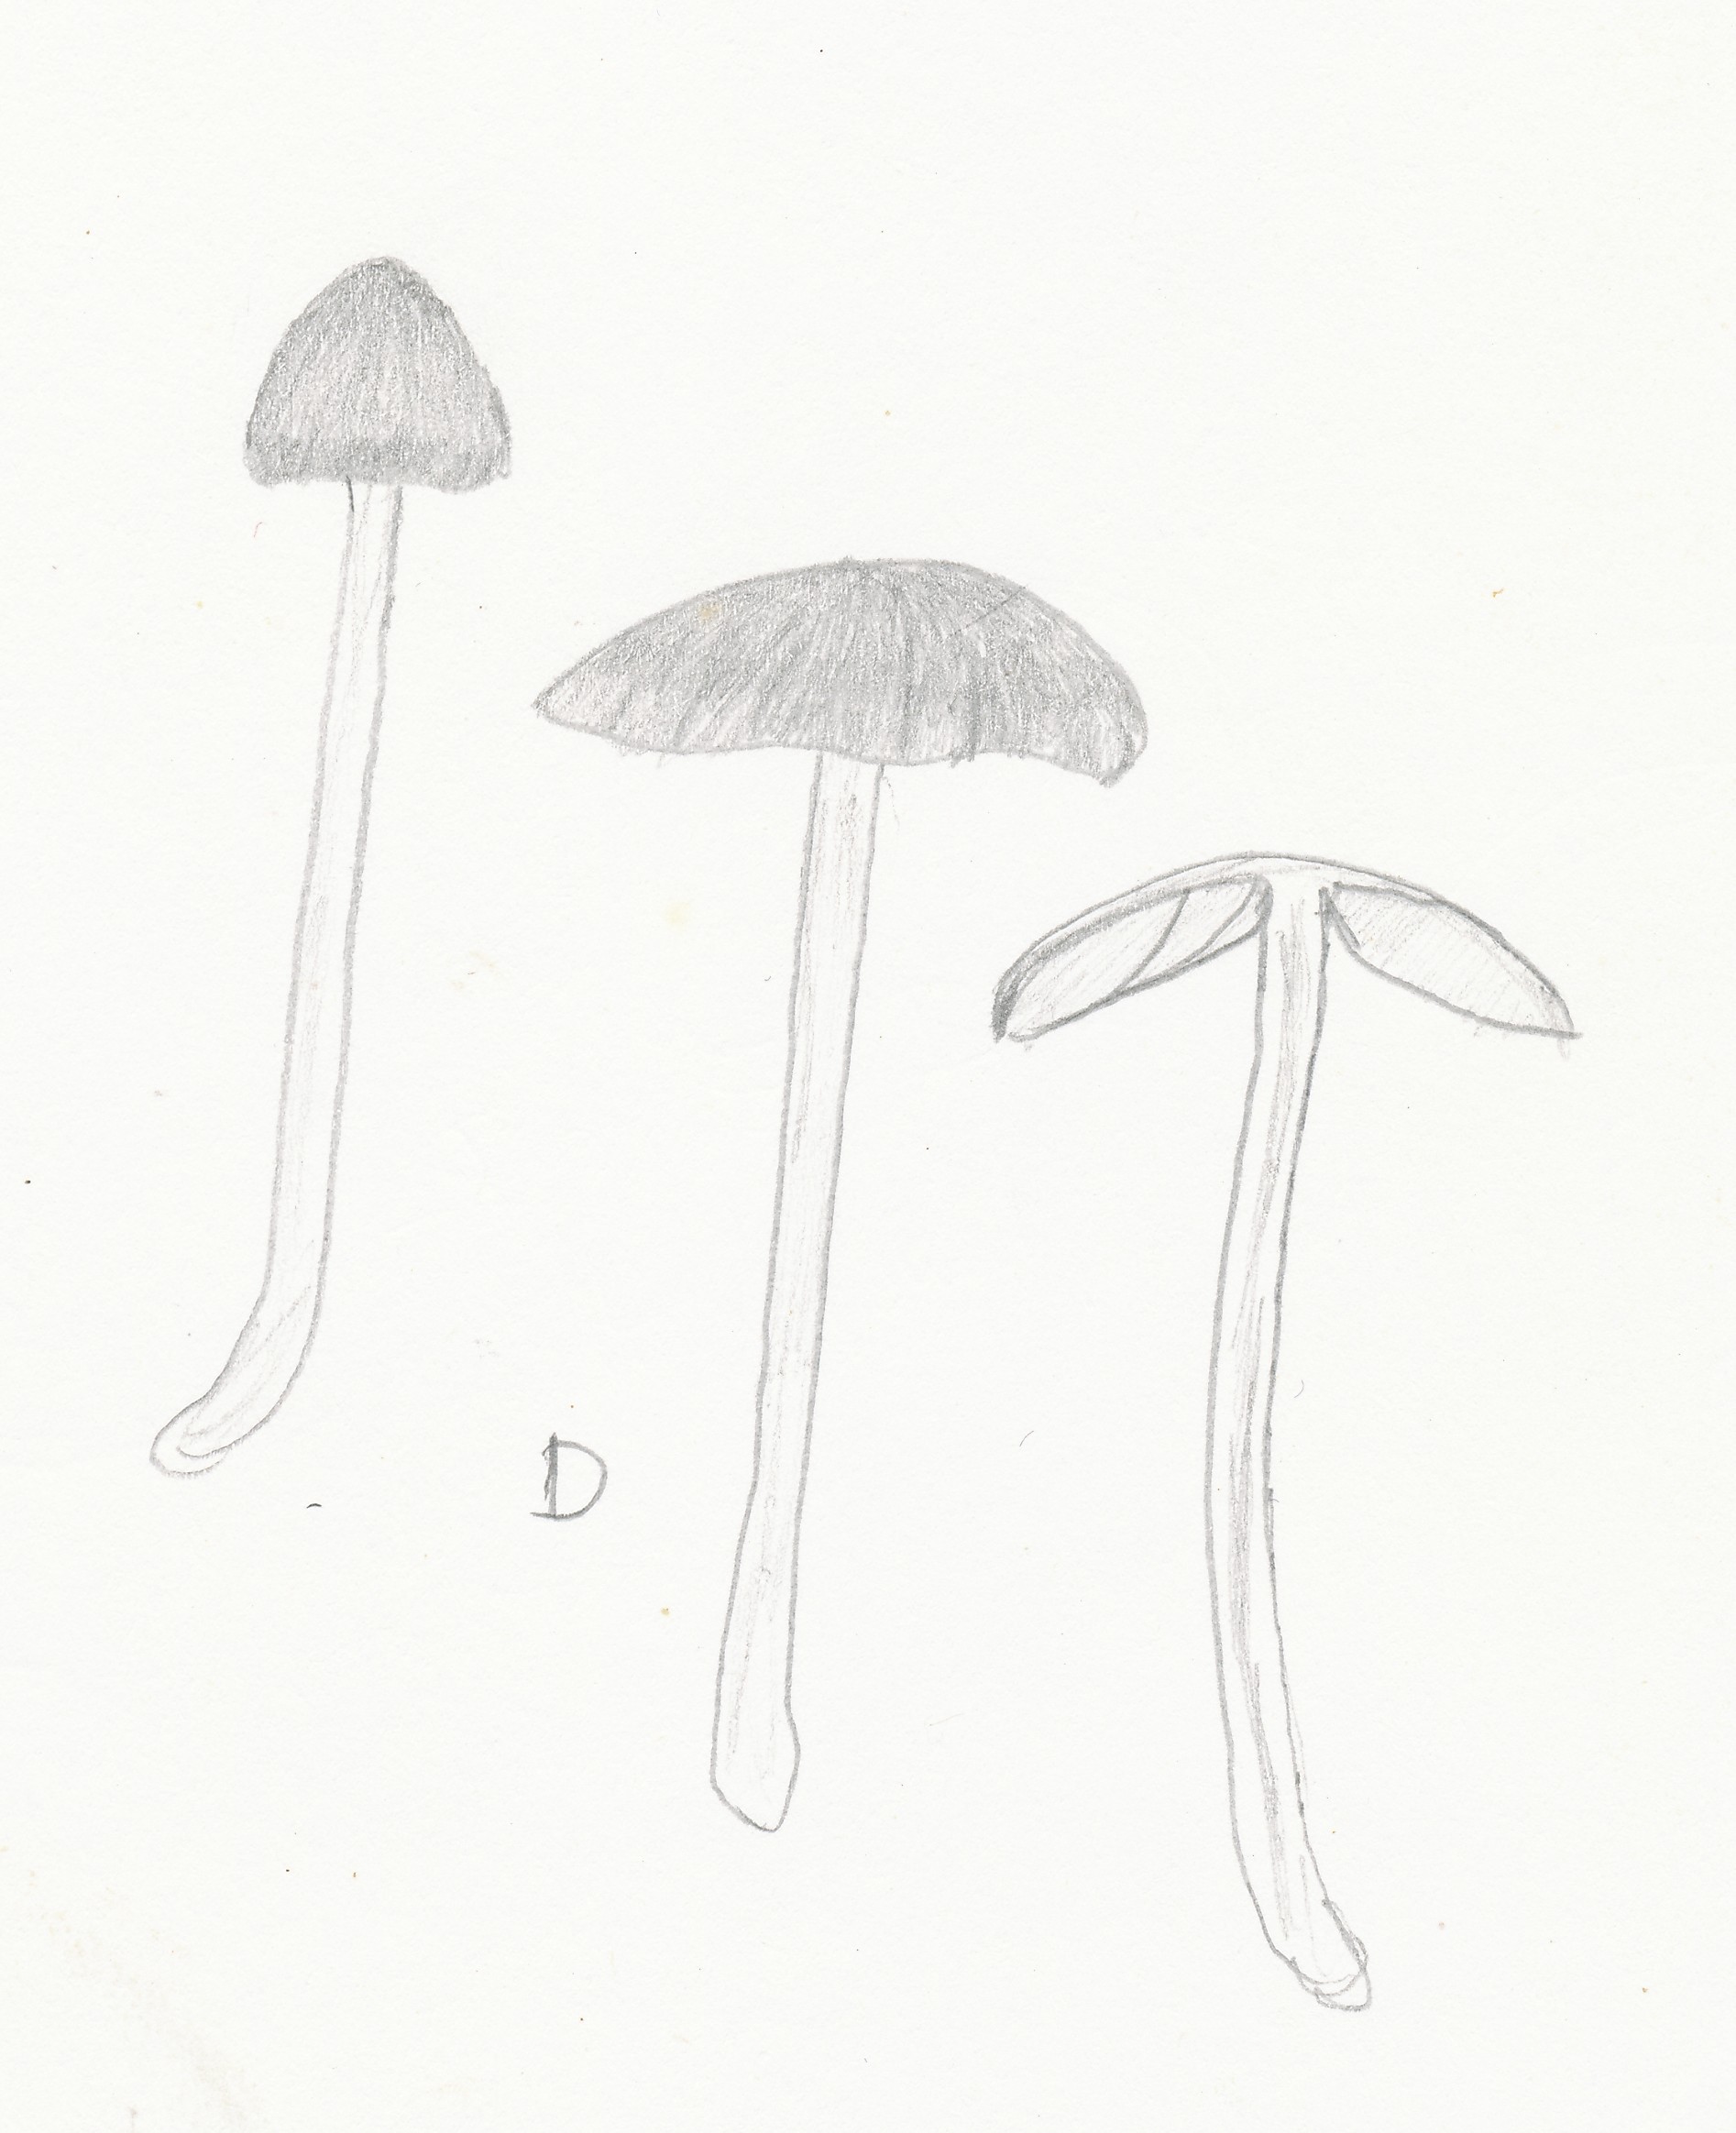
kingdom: Fungi
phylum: Basidiomycota
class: Agaricomycetes
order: Agaricales
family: Entolomataceae
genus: Entoloma
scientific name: Entoloma fernandae
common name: filtet rødblad
